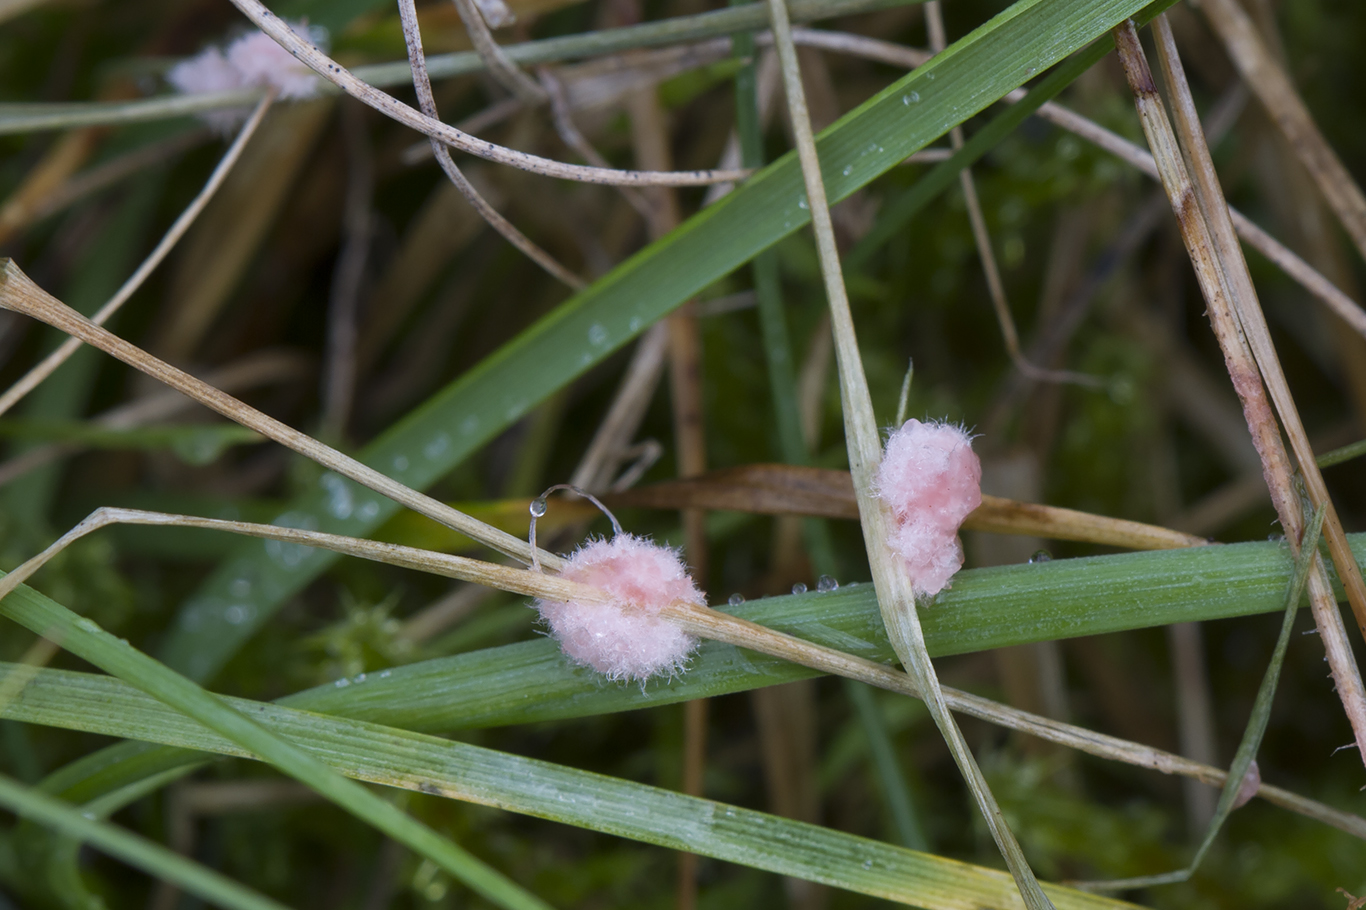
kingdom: Fungi
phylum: Basidiomycota
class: Agaricomycetes
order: Corticiales
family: Corticiaceae
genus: Laetisaria
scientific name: Laetisaria
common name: rødtråd
